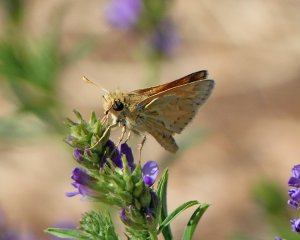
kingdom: Animalia
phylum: Arthropoda
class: Insecta
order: Lepidoptera
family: Hesperiidae
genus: Polites
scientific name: Polites sabuleti
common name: Sandhill Skipper
